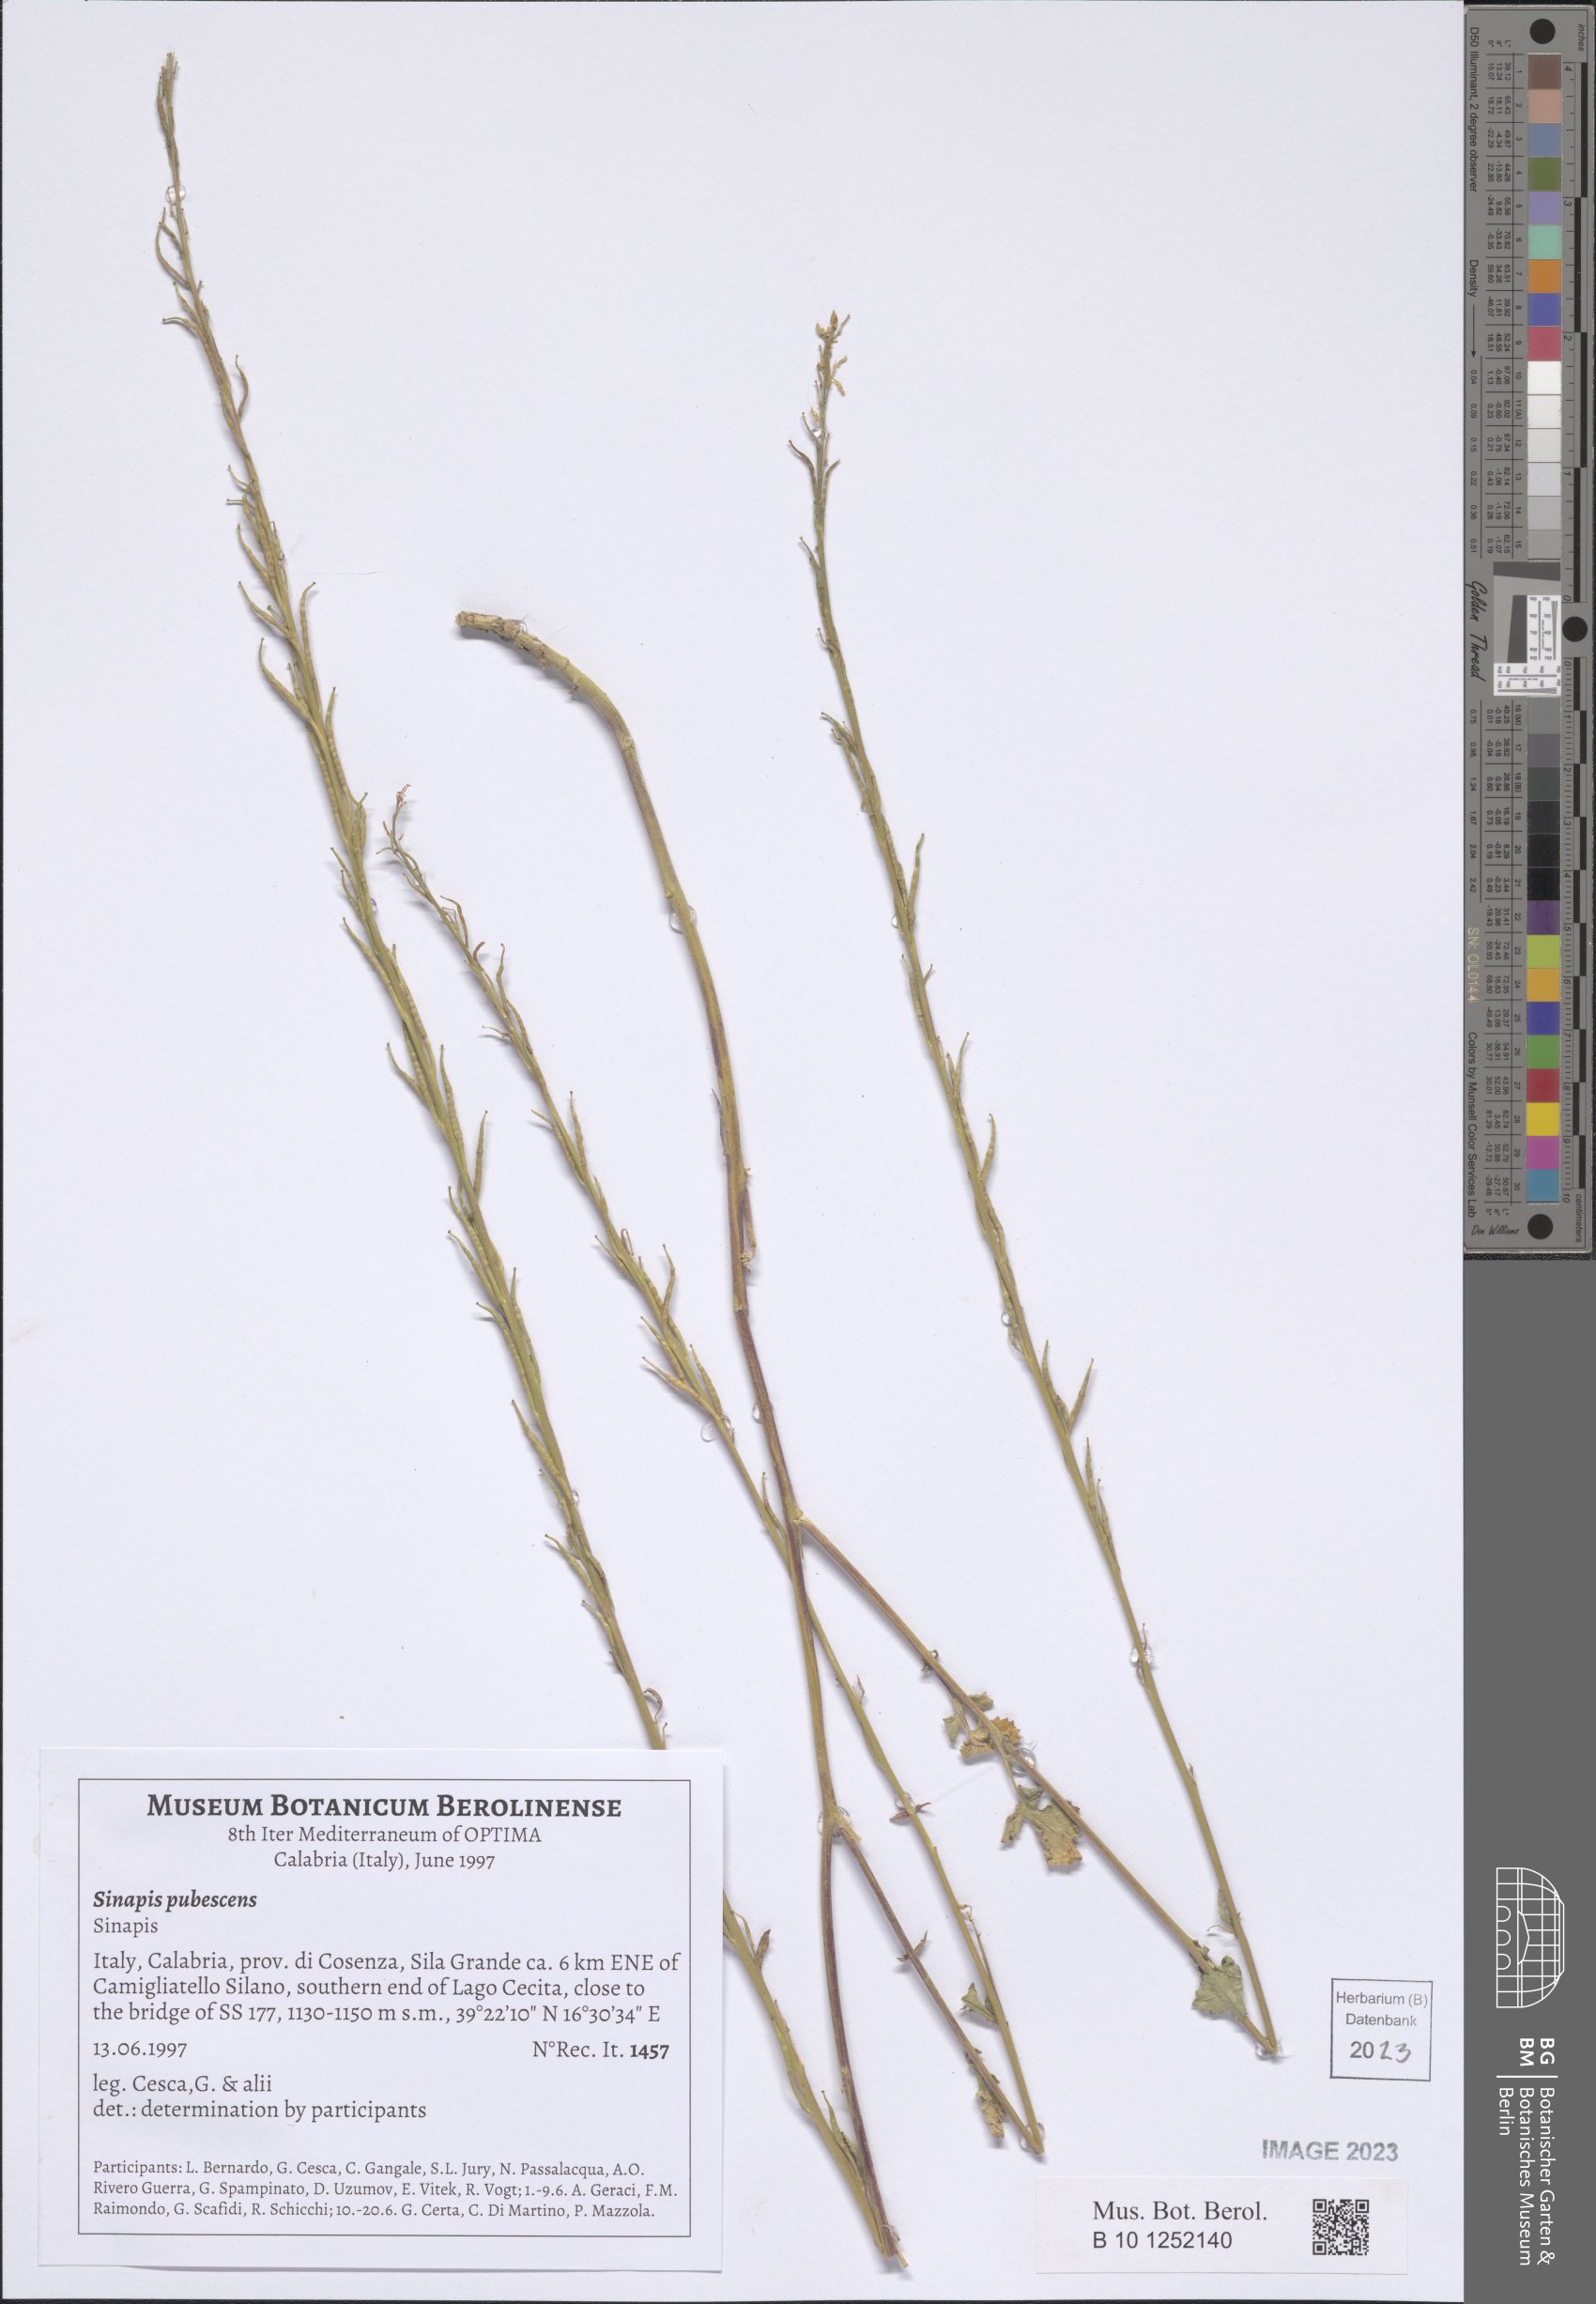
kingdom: Plantae
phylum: Tracheophyta
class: Magnoliopsida
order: Brassicales
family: Brassicaceae
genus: Sinapis
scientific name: Sinapis pubescens
